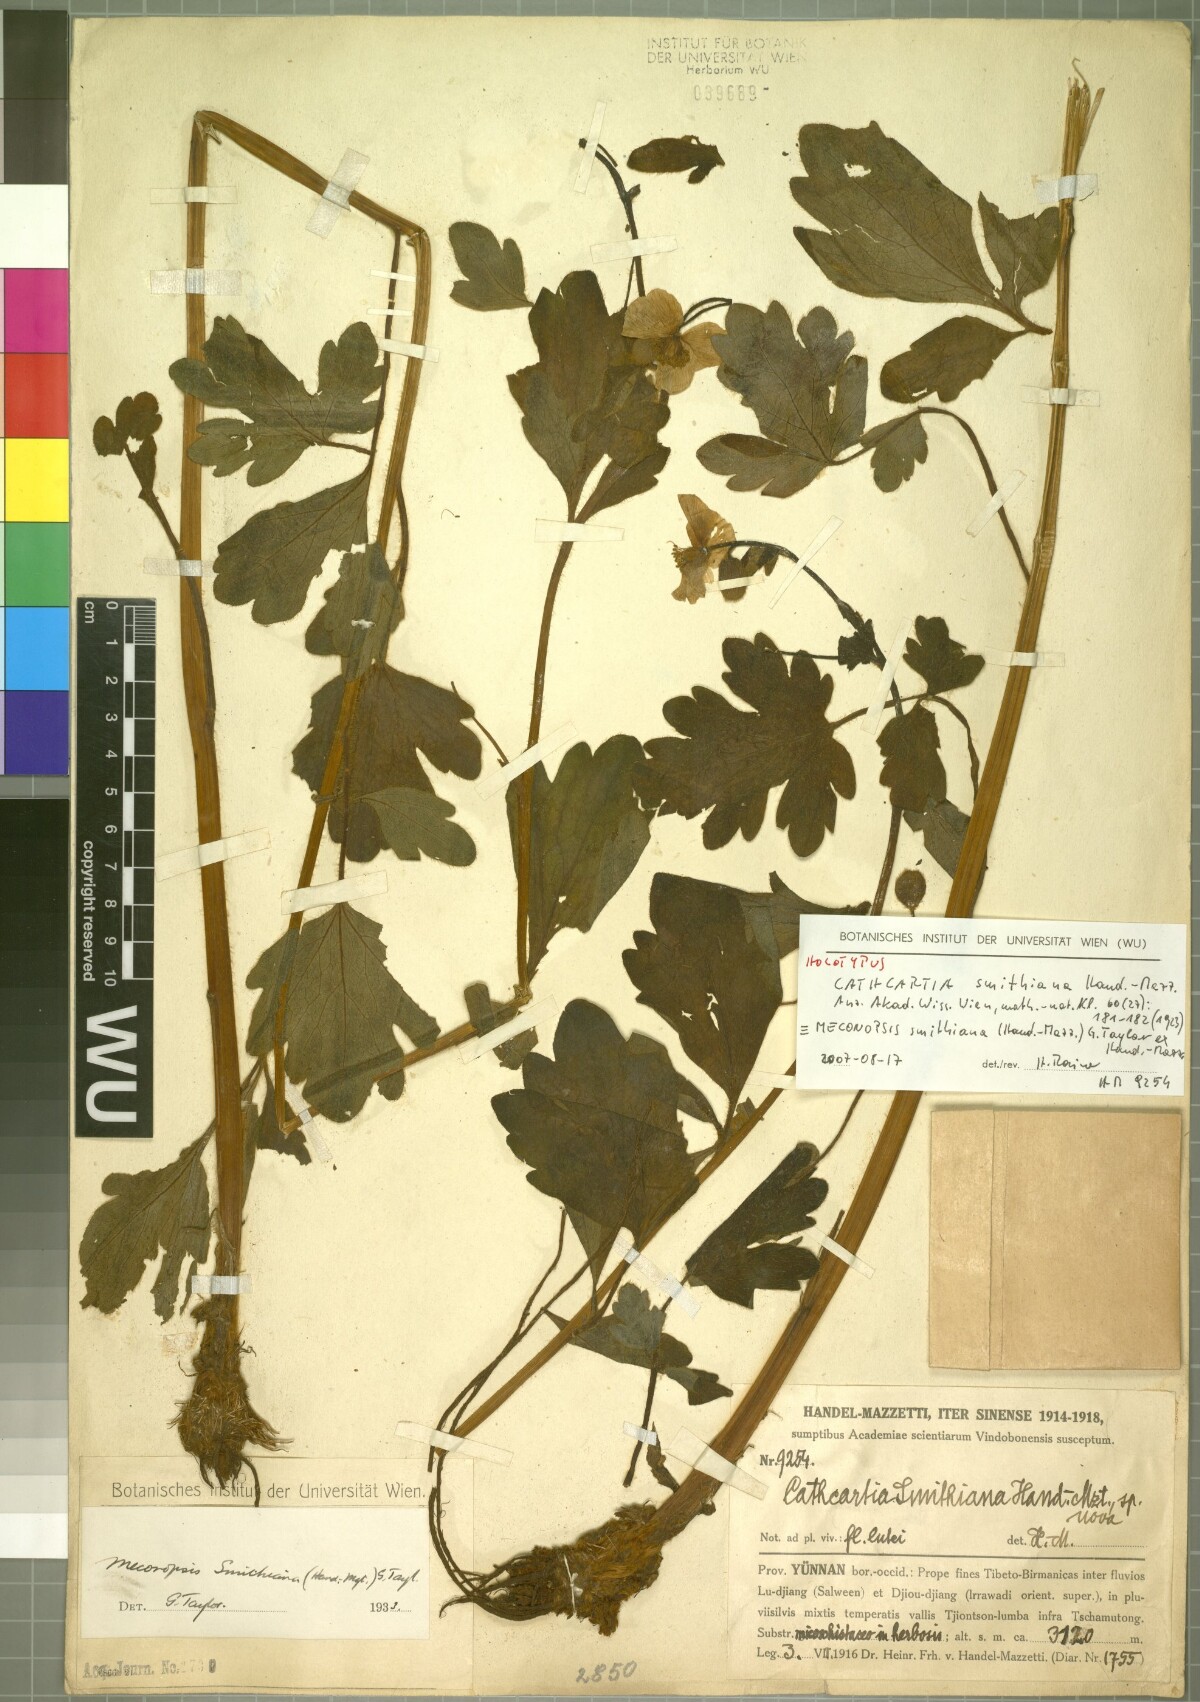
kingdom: Plantae
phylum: Tracheophyta
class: Magnoliopsida
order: Ranunculales
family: Papaveraceae
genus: Cathcartia
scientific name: Cathcartia smithiana
